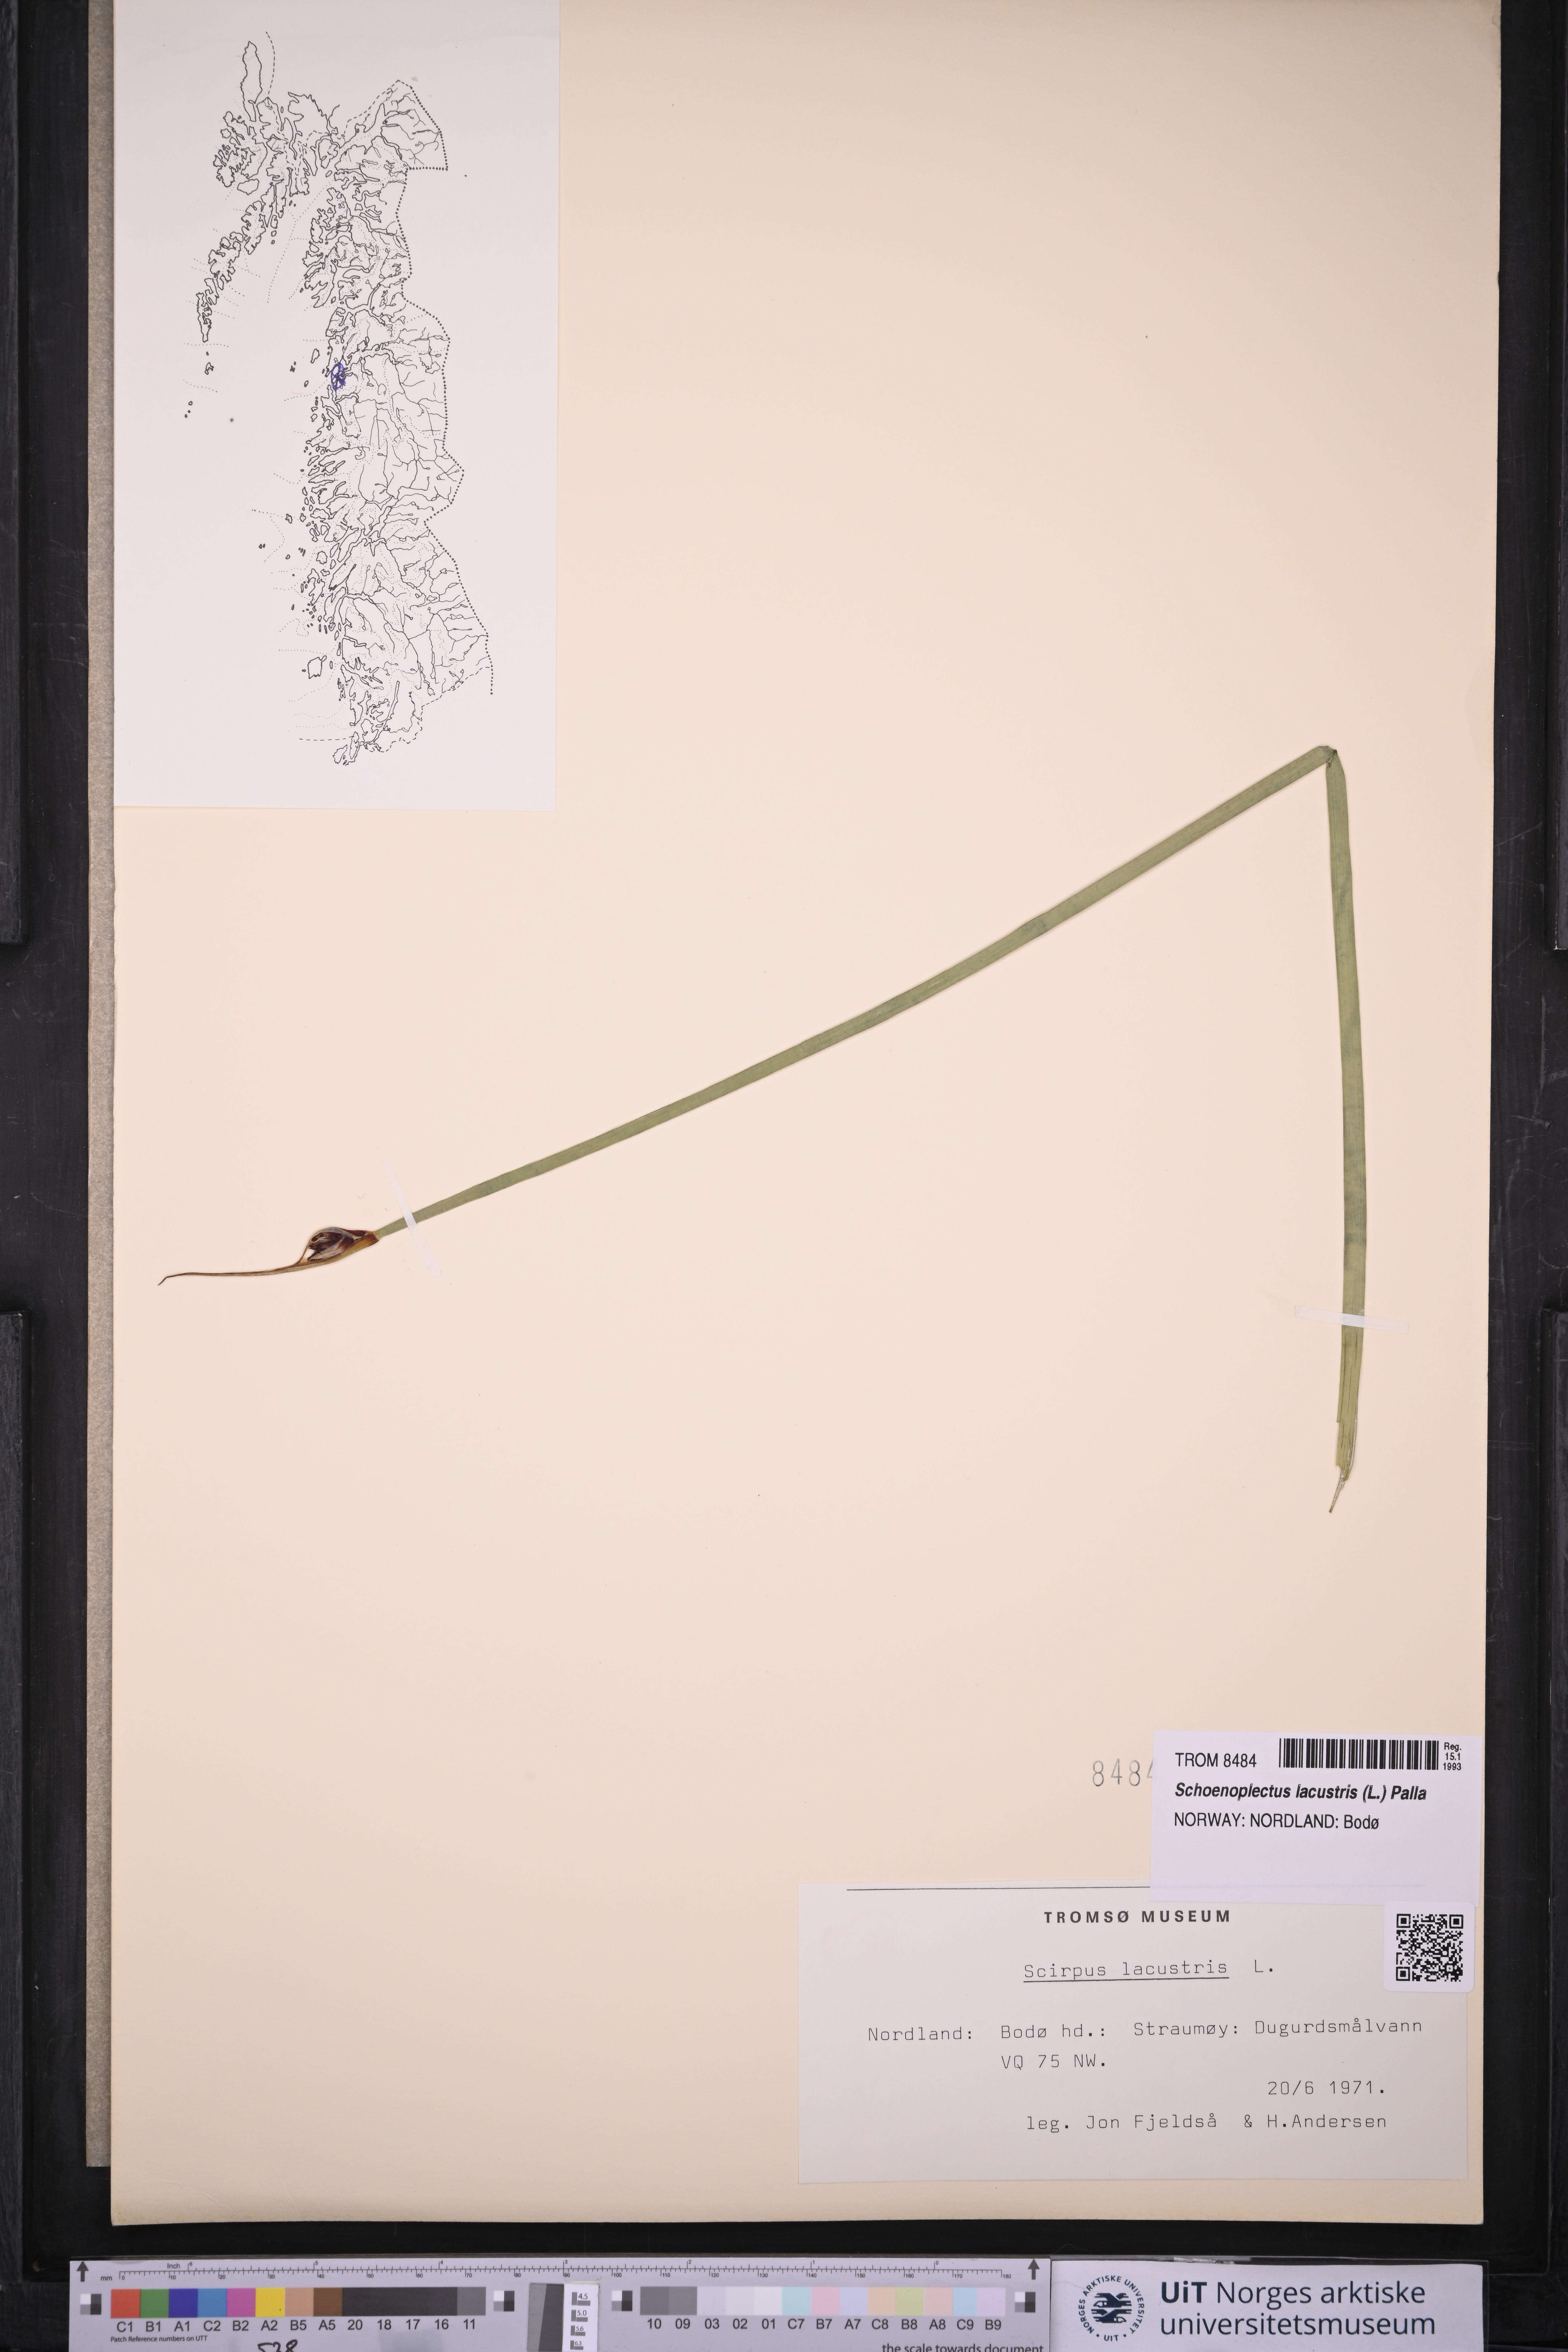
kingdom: Plantae
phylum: Tracheophyta
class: Liliopsida
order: Poales
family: Cyperaceae
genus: Schoenoplectus
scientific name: Schoenoplectus lacustris
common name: Common club-rush
